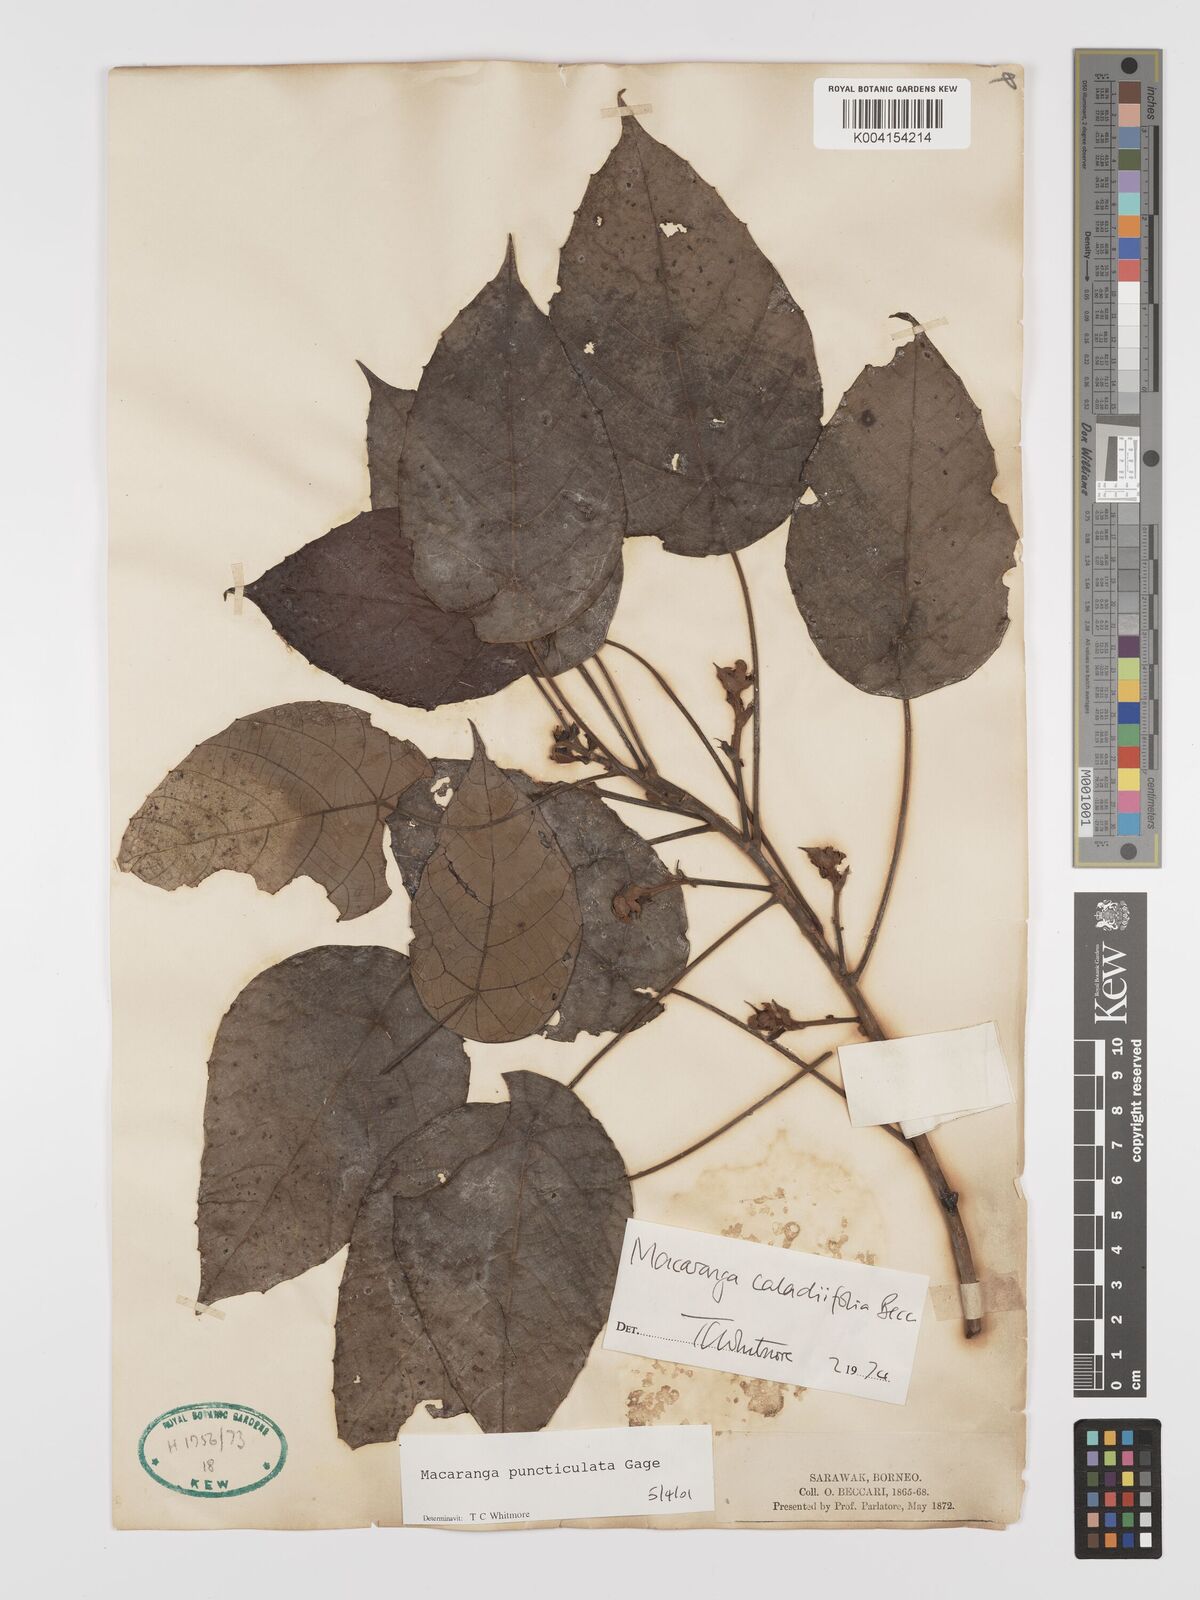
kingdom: Plantae
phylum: Tracheophyta
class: Magnoliopsida
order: Malpighiales
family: Euphorbiaceae
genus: Macaranga
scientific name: Macaranga puncticulata
